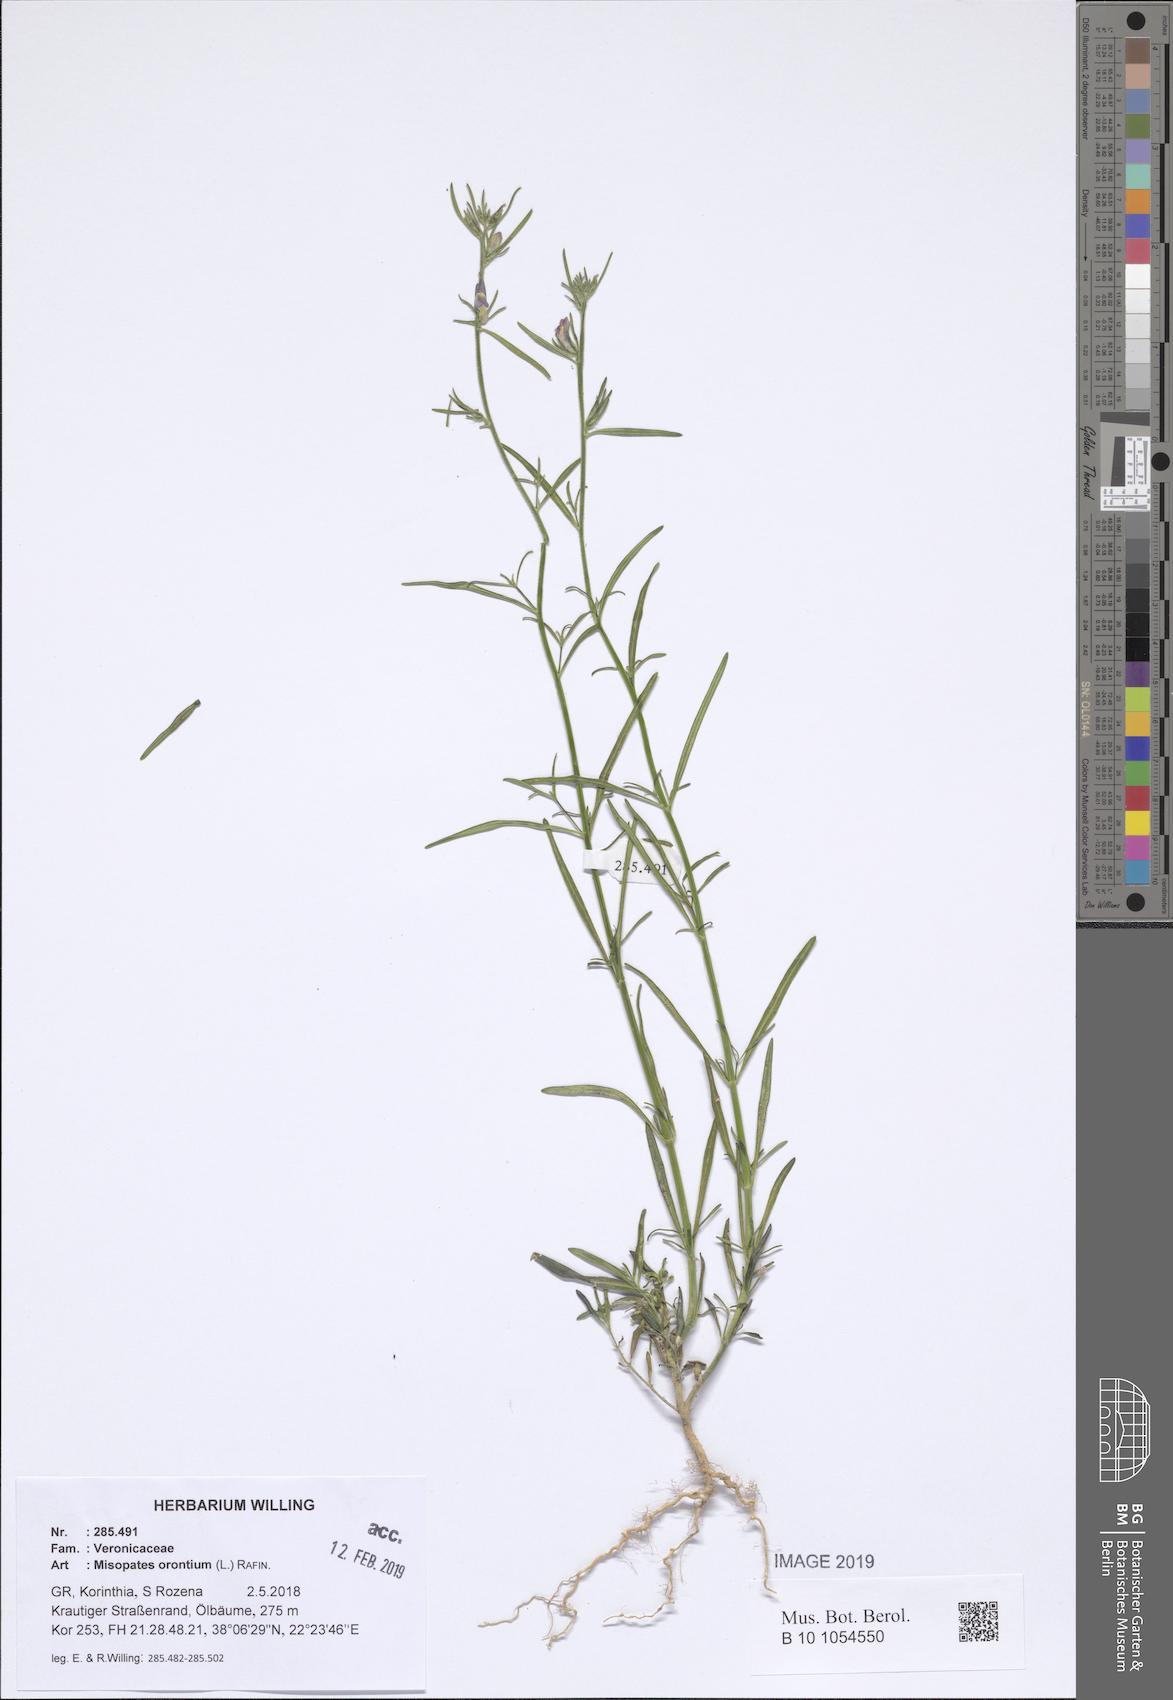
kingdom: Plantae
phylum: Tracheophyta
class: Magnoliopsida
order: Lamiales
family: Plantaginaceae
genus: Misopates
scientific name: Misopates orontium
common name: Weasel's-snout
